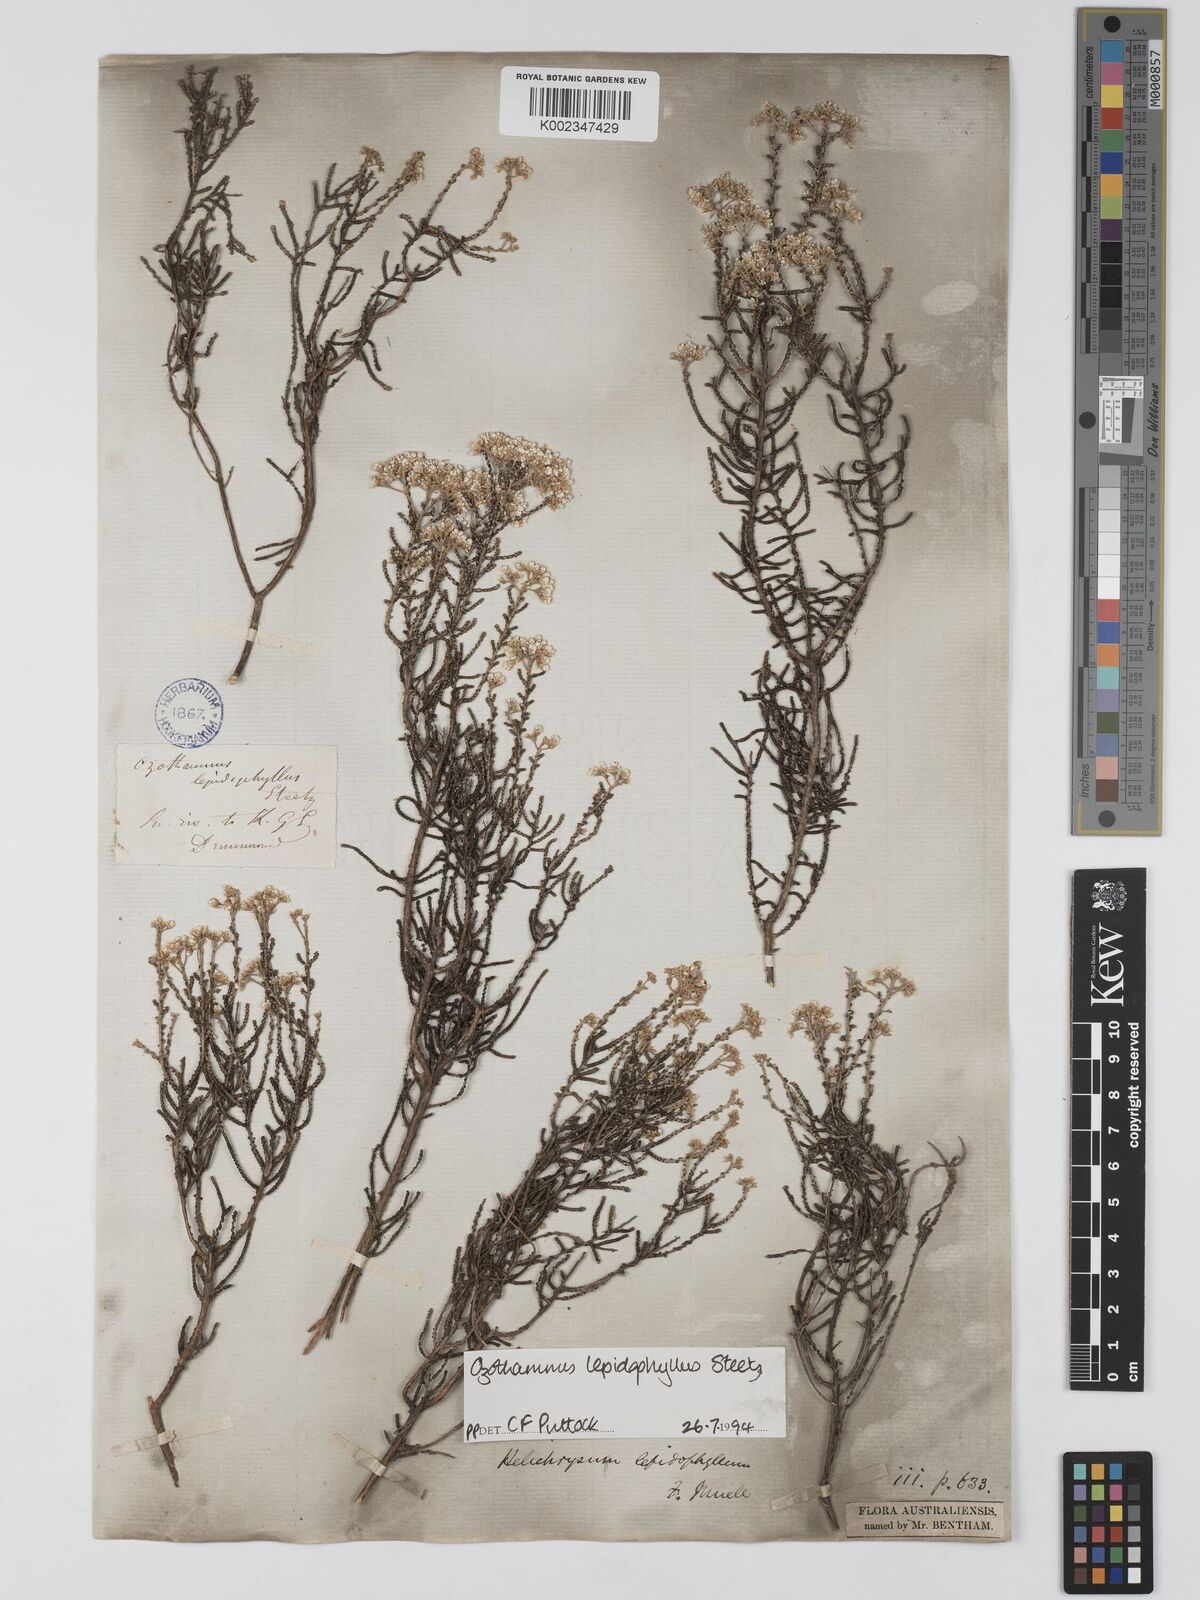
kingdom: Plantae
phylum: Tracheophyta
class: Magnoliopsida
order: Asterales
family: Asteraceae
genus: Ozothamnus
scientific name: Ozothamnus lepidophyllus
